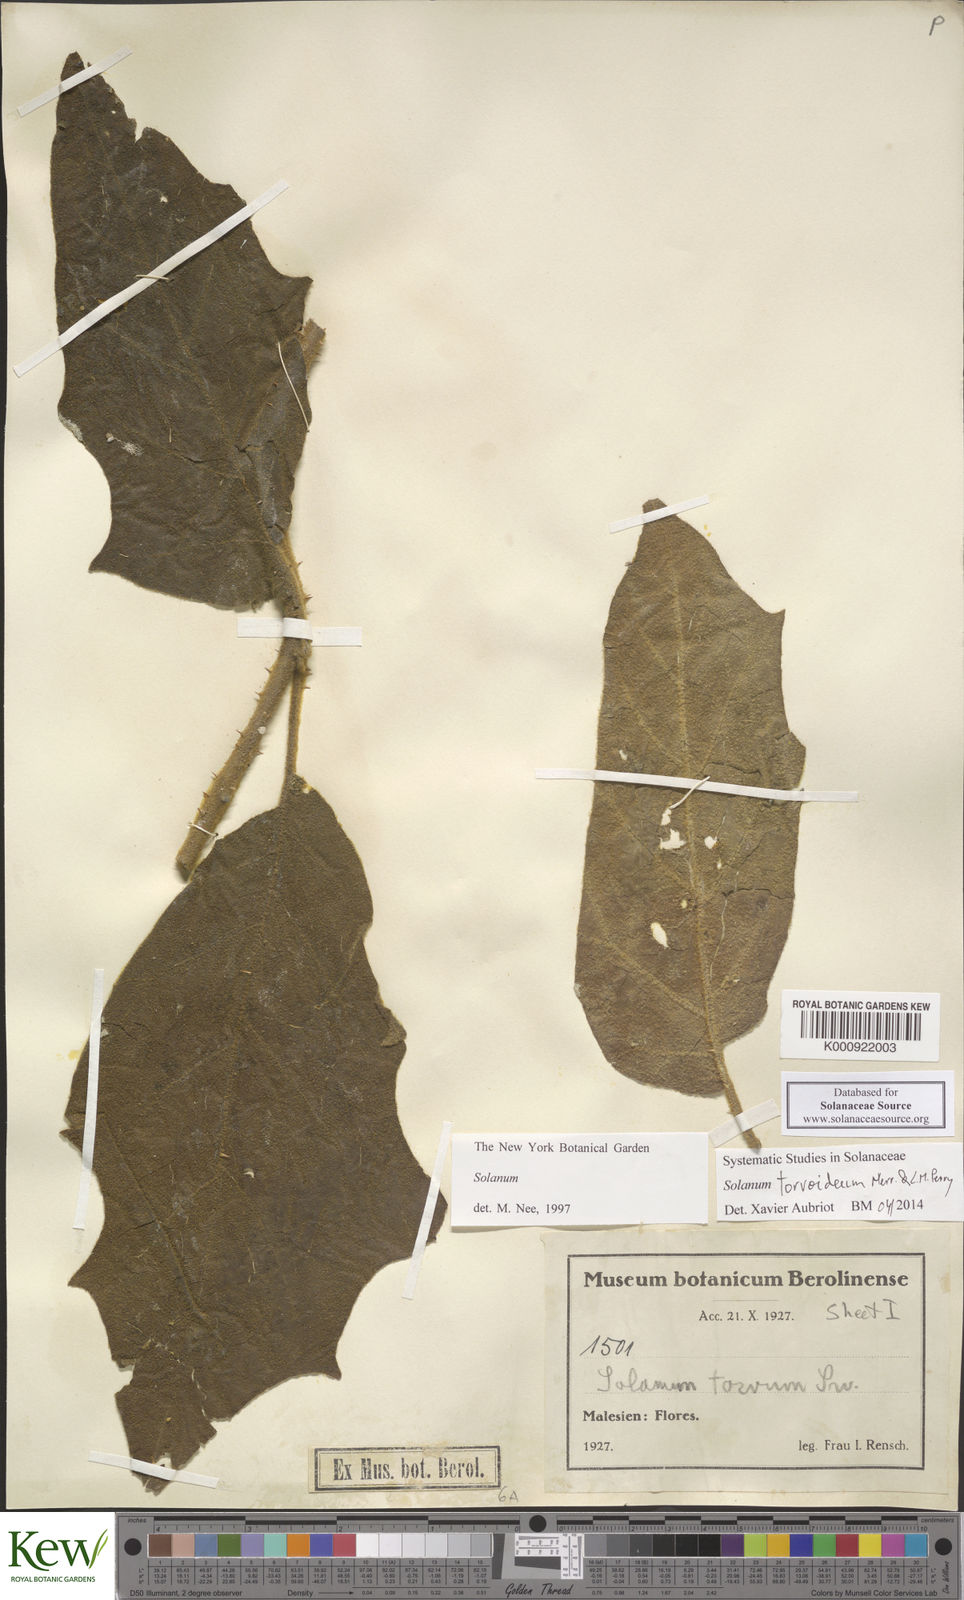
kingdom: Plantae
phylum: Tracheophyta
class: Magnoliopsida
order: Solanales
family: Solanaceae
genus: Solanum
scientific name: Solanum torvoideum
